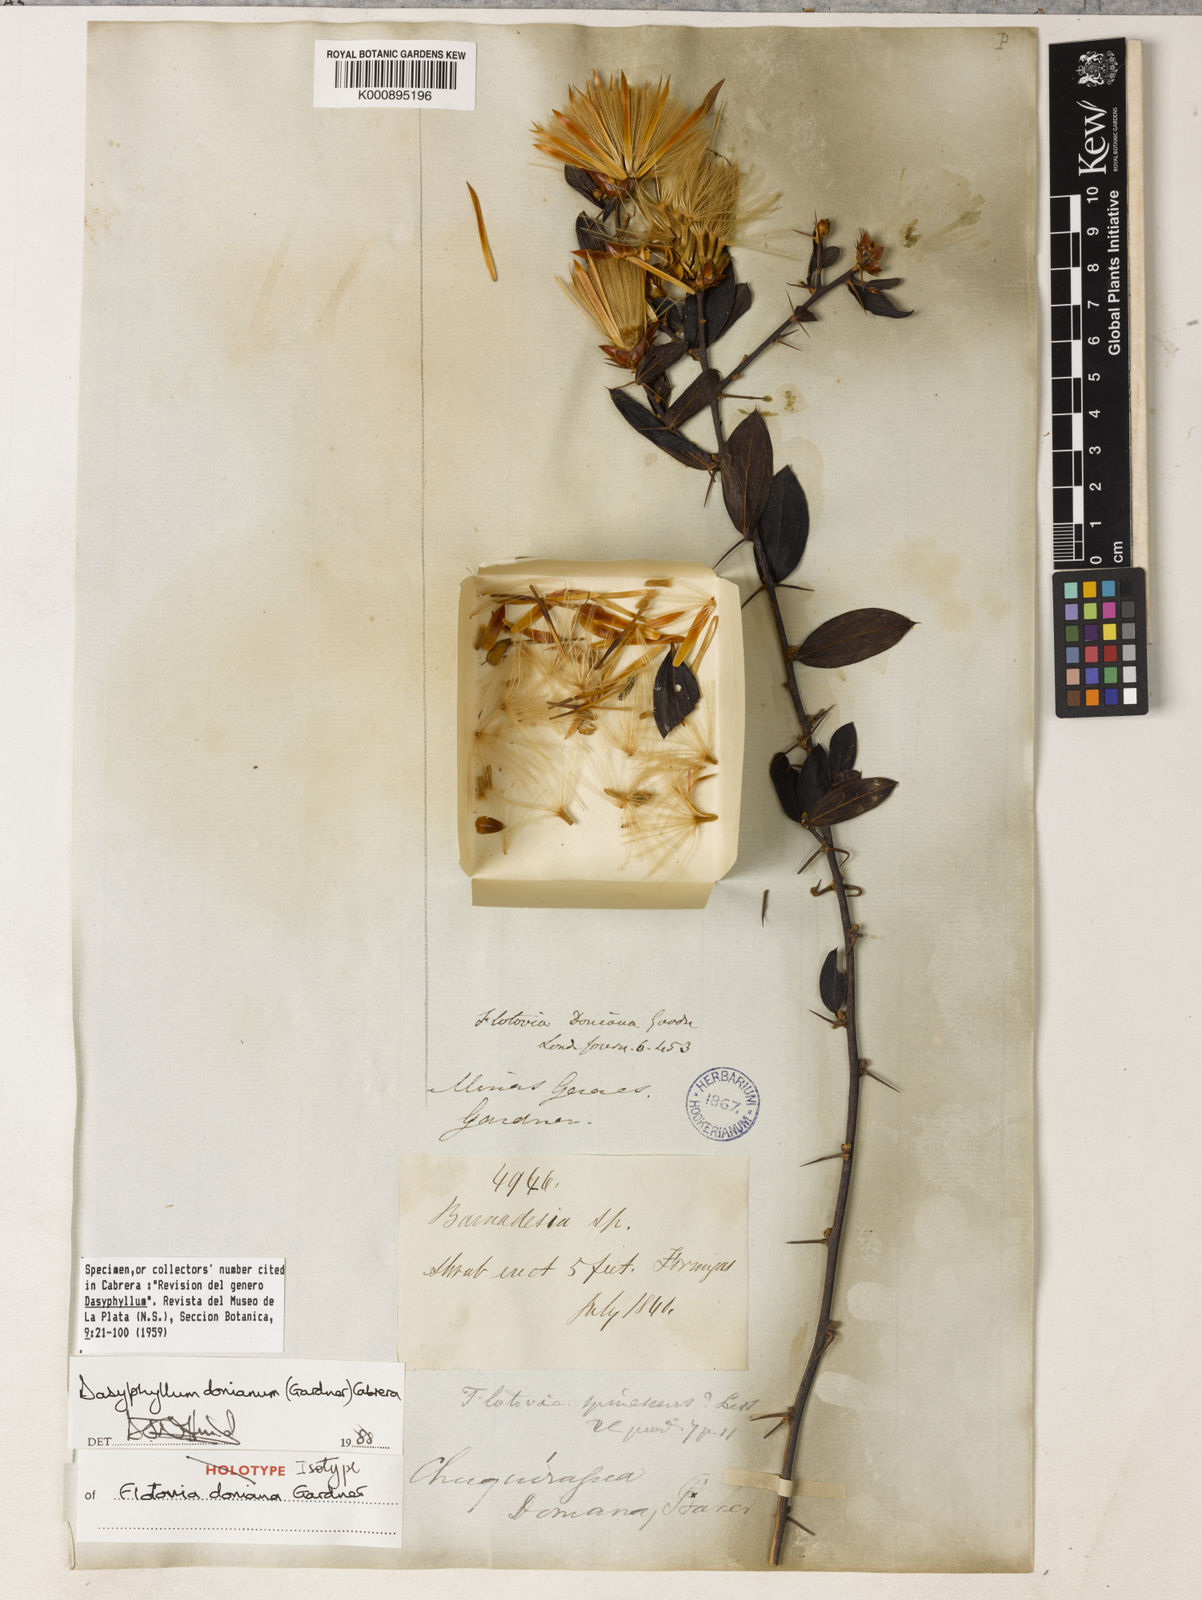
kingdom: Plantae
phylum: Tracheophyta
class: Magnoliopsida
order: Asterales
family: Asteraceae
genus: Dasyphyllum
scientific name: Dasyphyllum donianum
